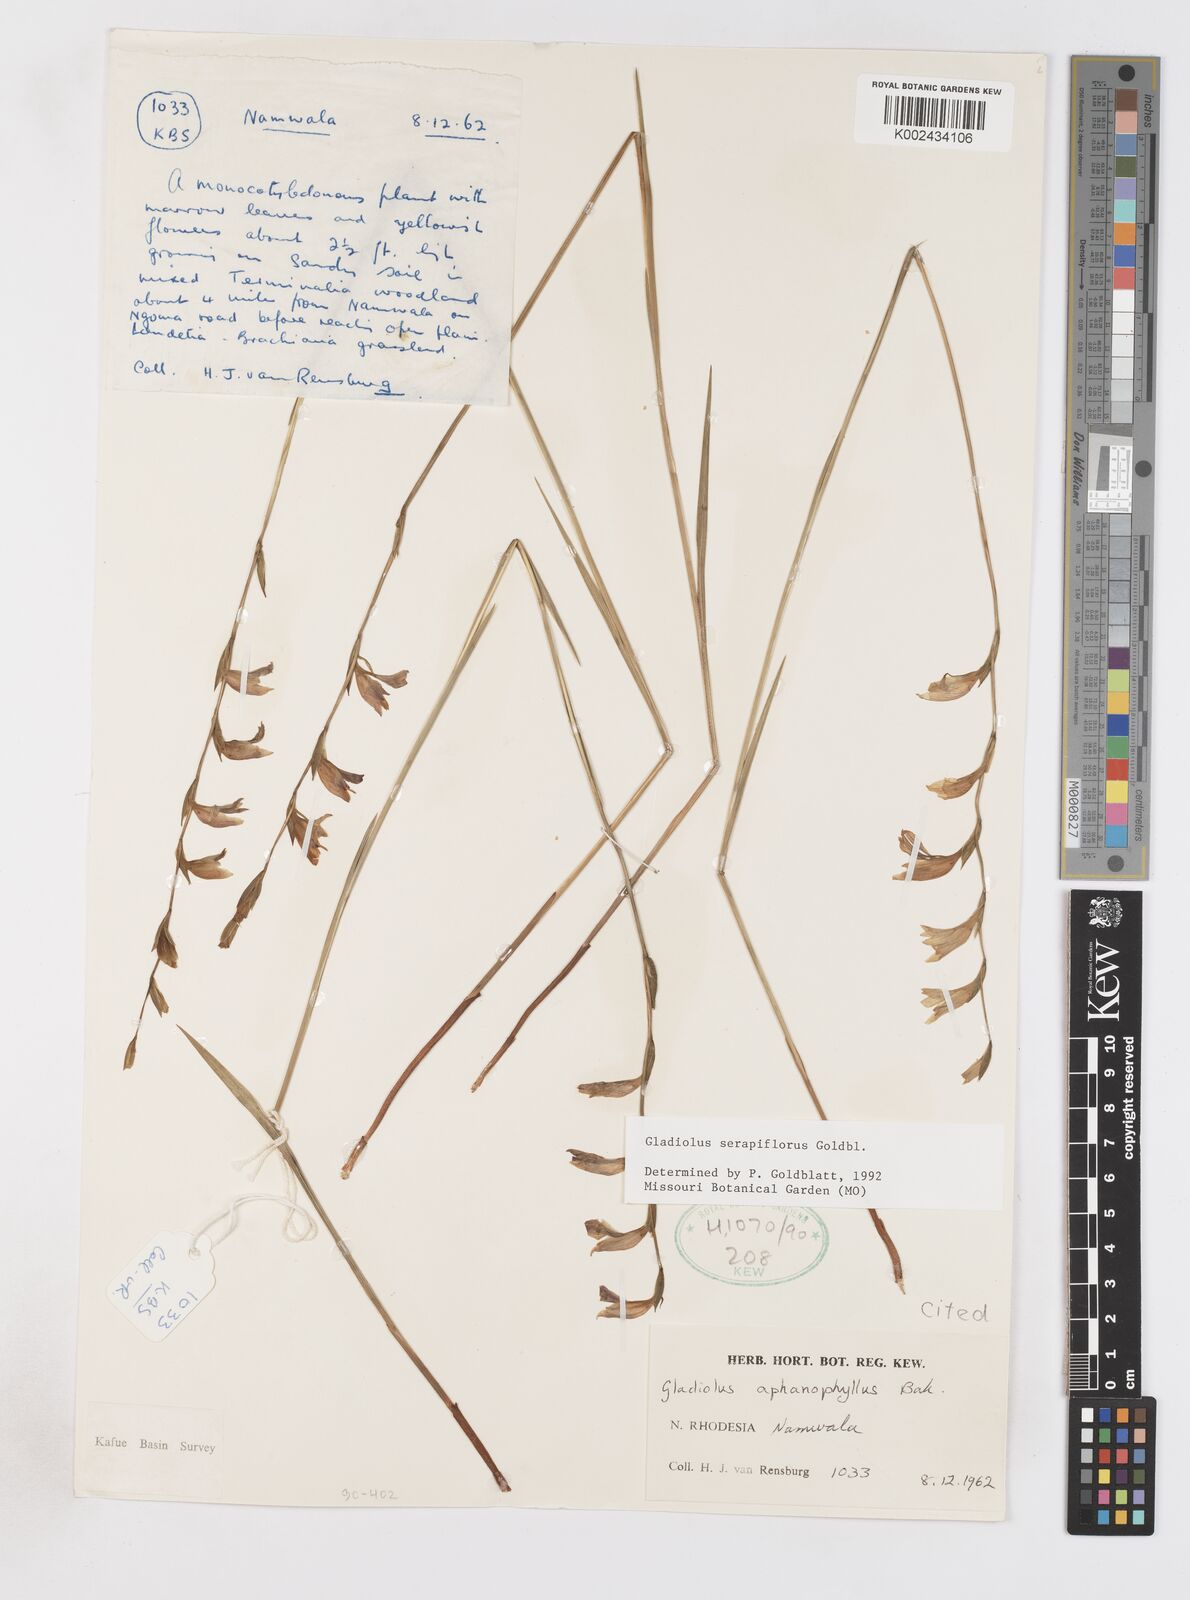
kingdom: Plantae
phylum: Tracheophyta
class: Liliopsida
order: Asparagales
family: Iridaceae
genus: Gladiolus
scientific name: Gladiolus serapiiflorus
